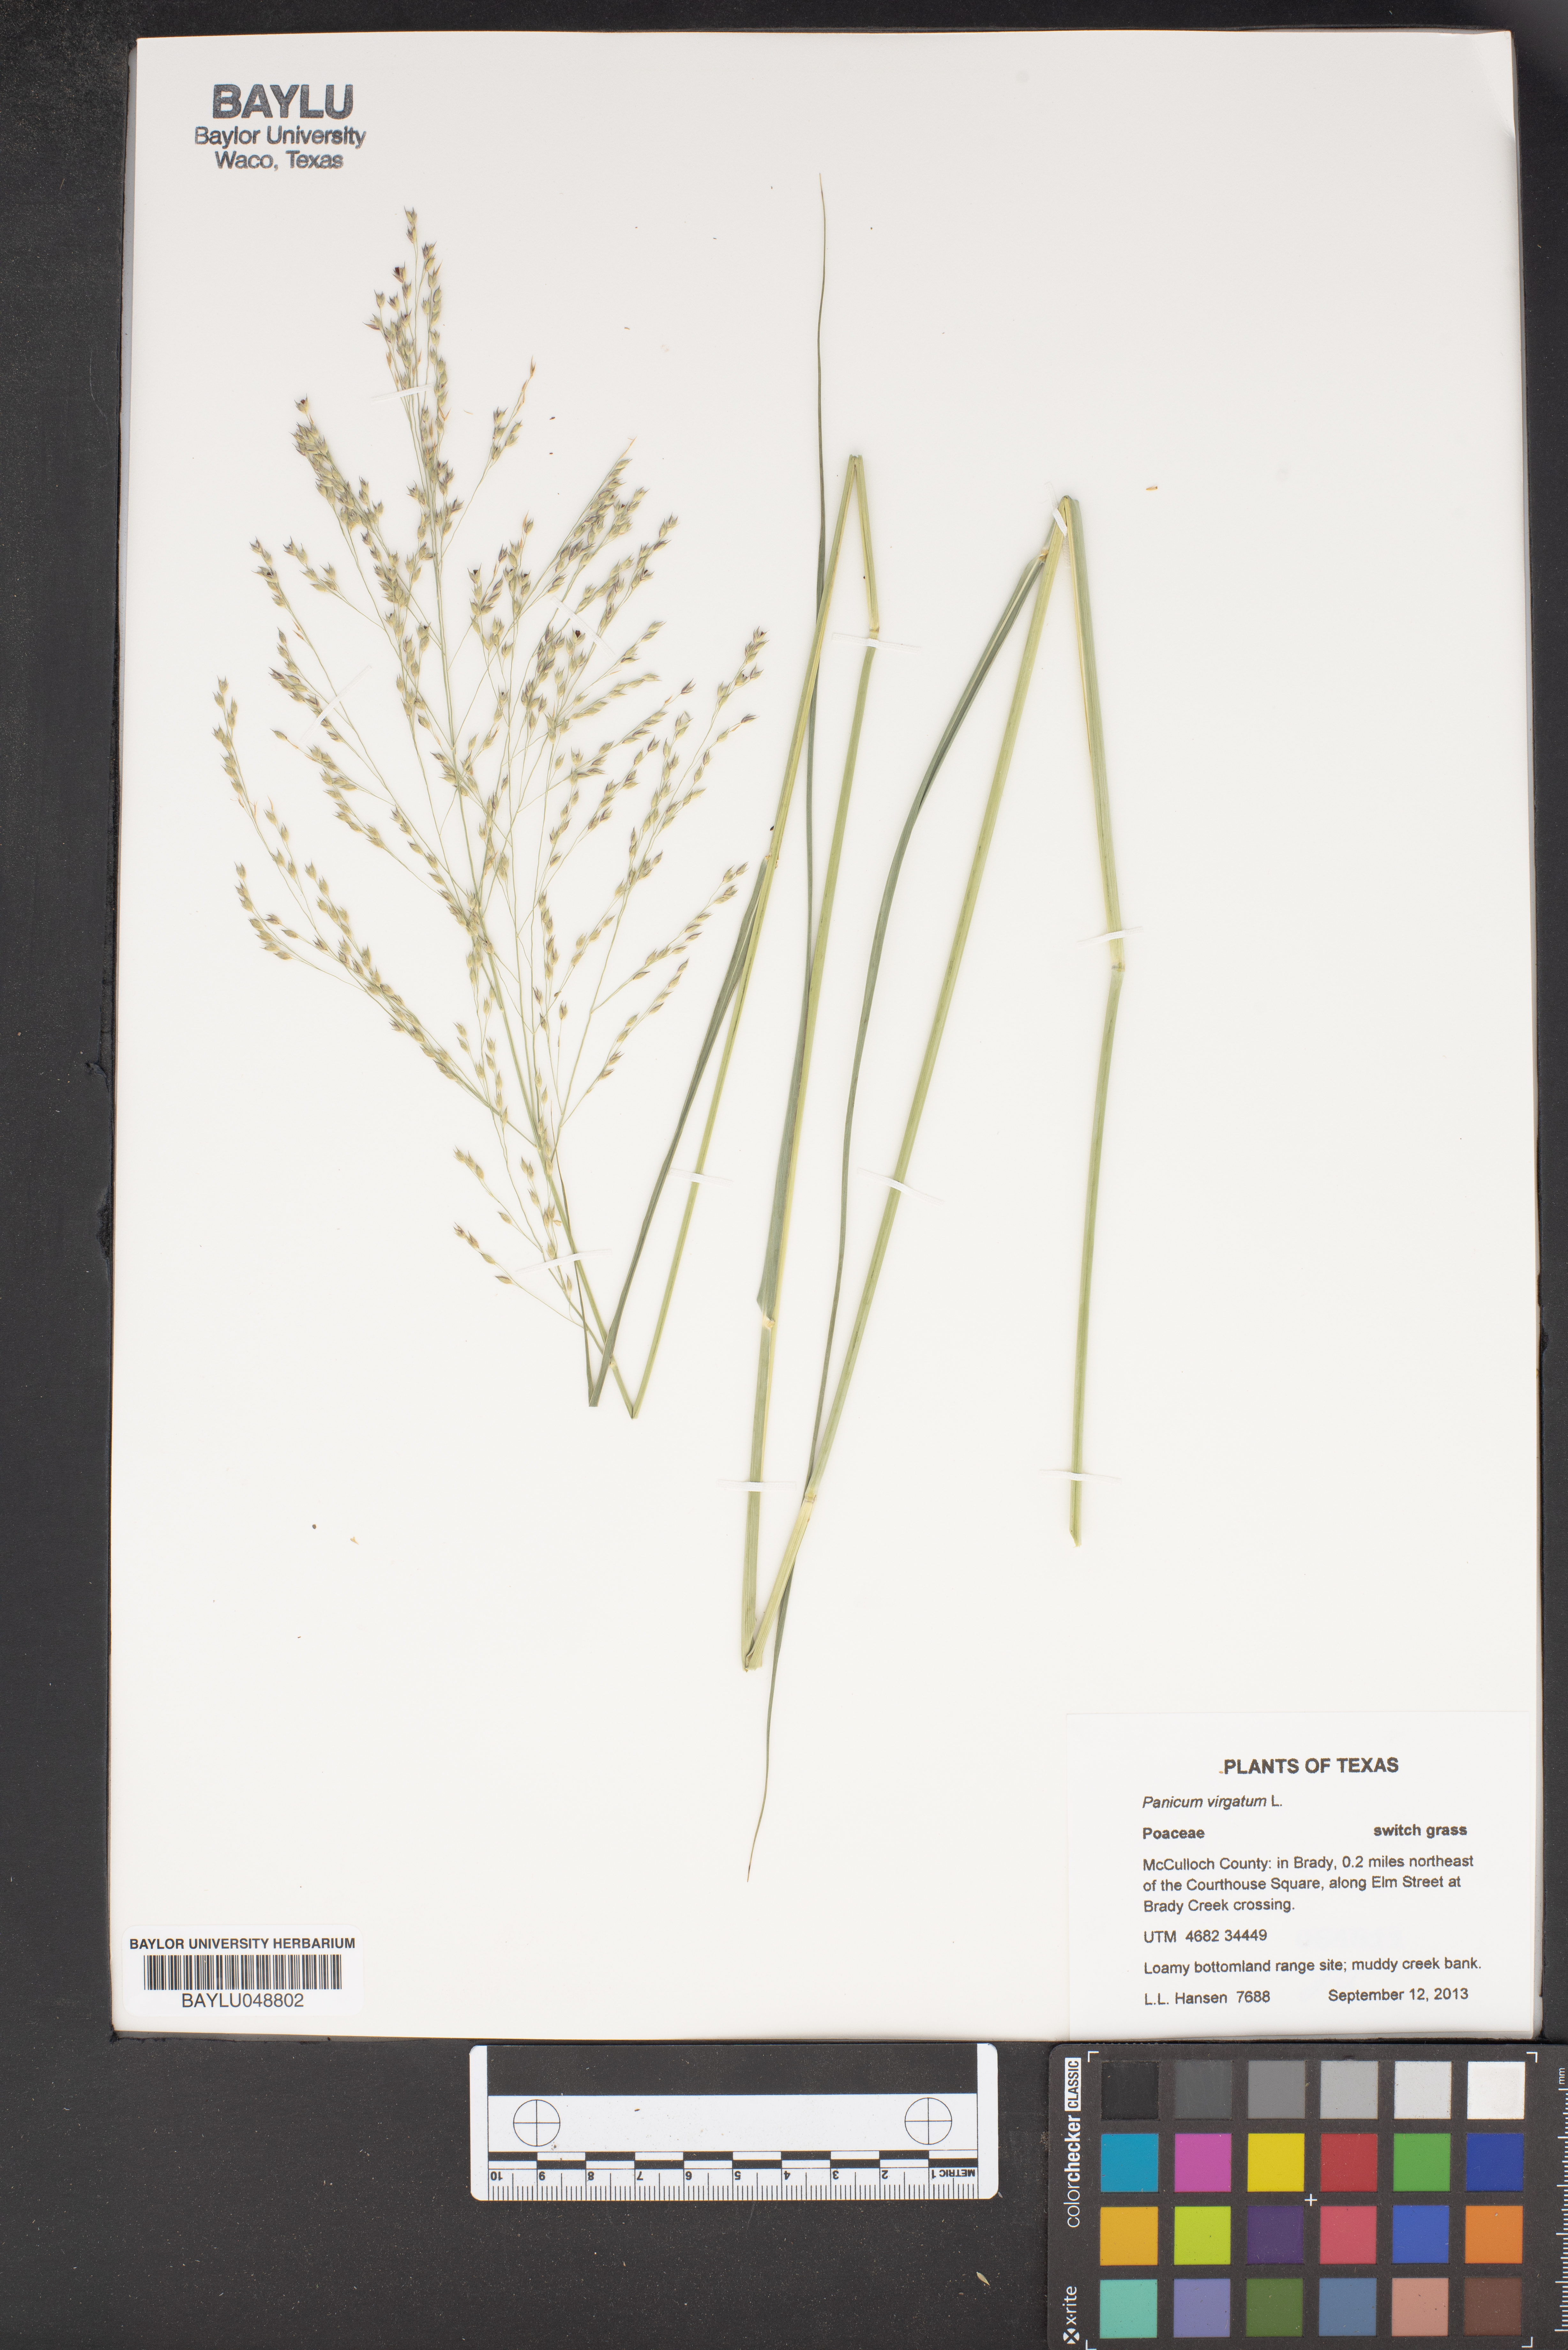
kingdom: Plantae
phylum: Tracheophyta
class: Liliopsida
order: Poales
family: Poaceae
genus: Panicum
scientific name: Panicum virgatum
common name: Switchgrass
